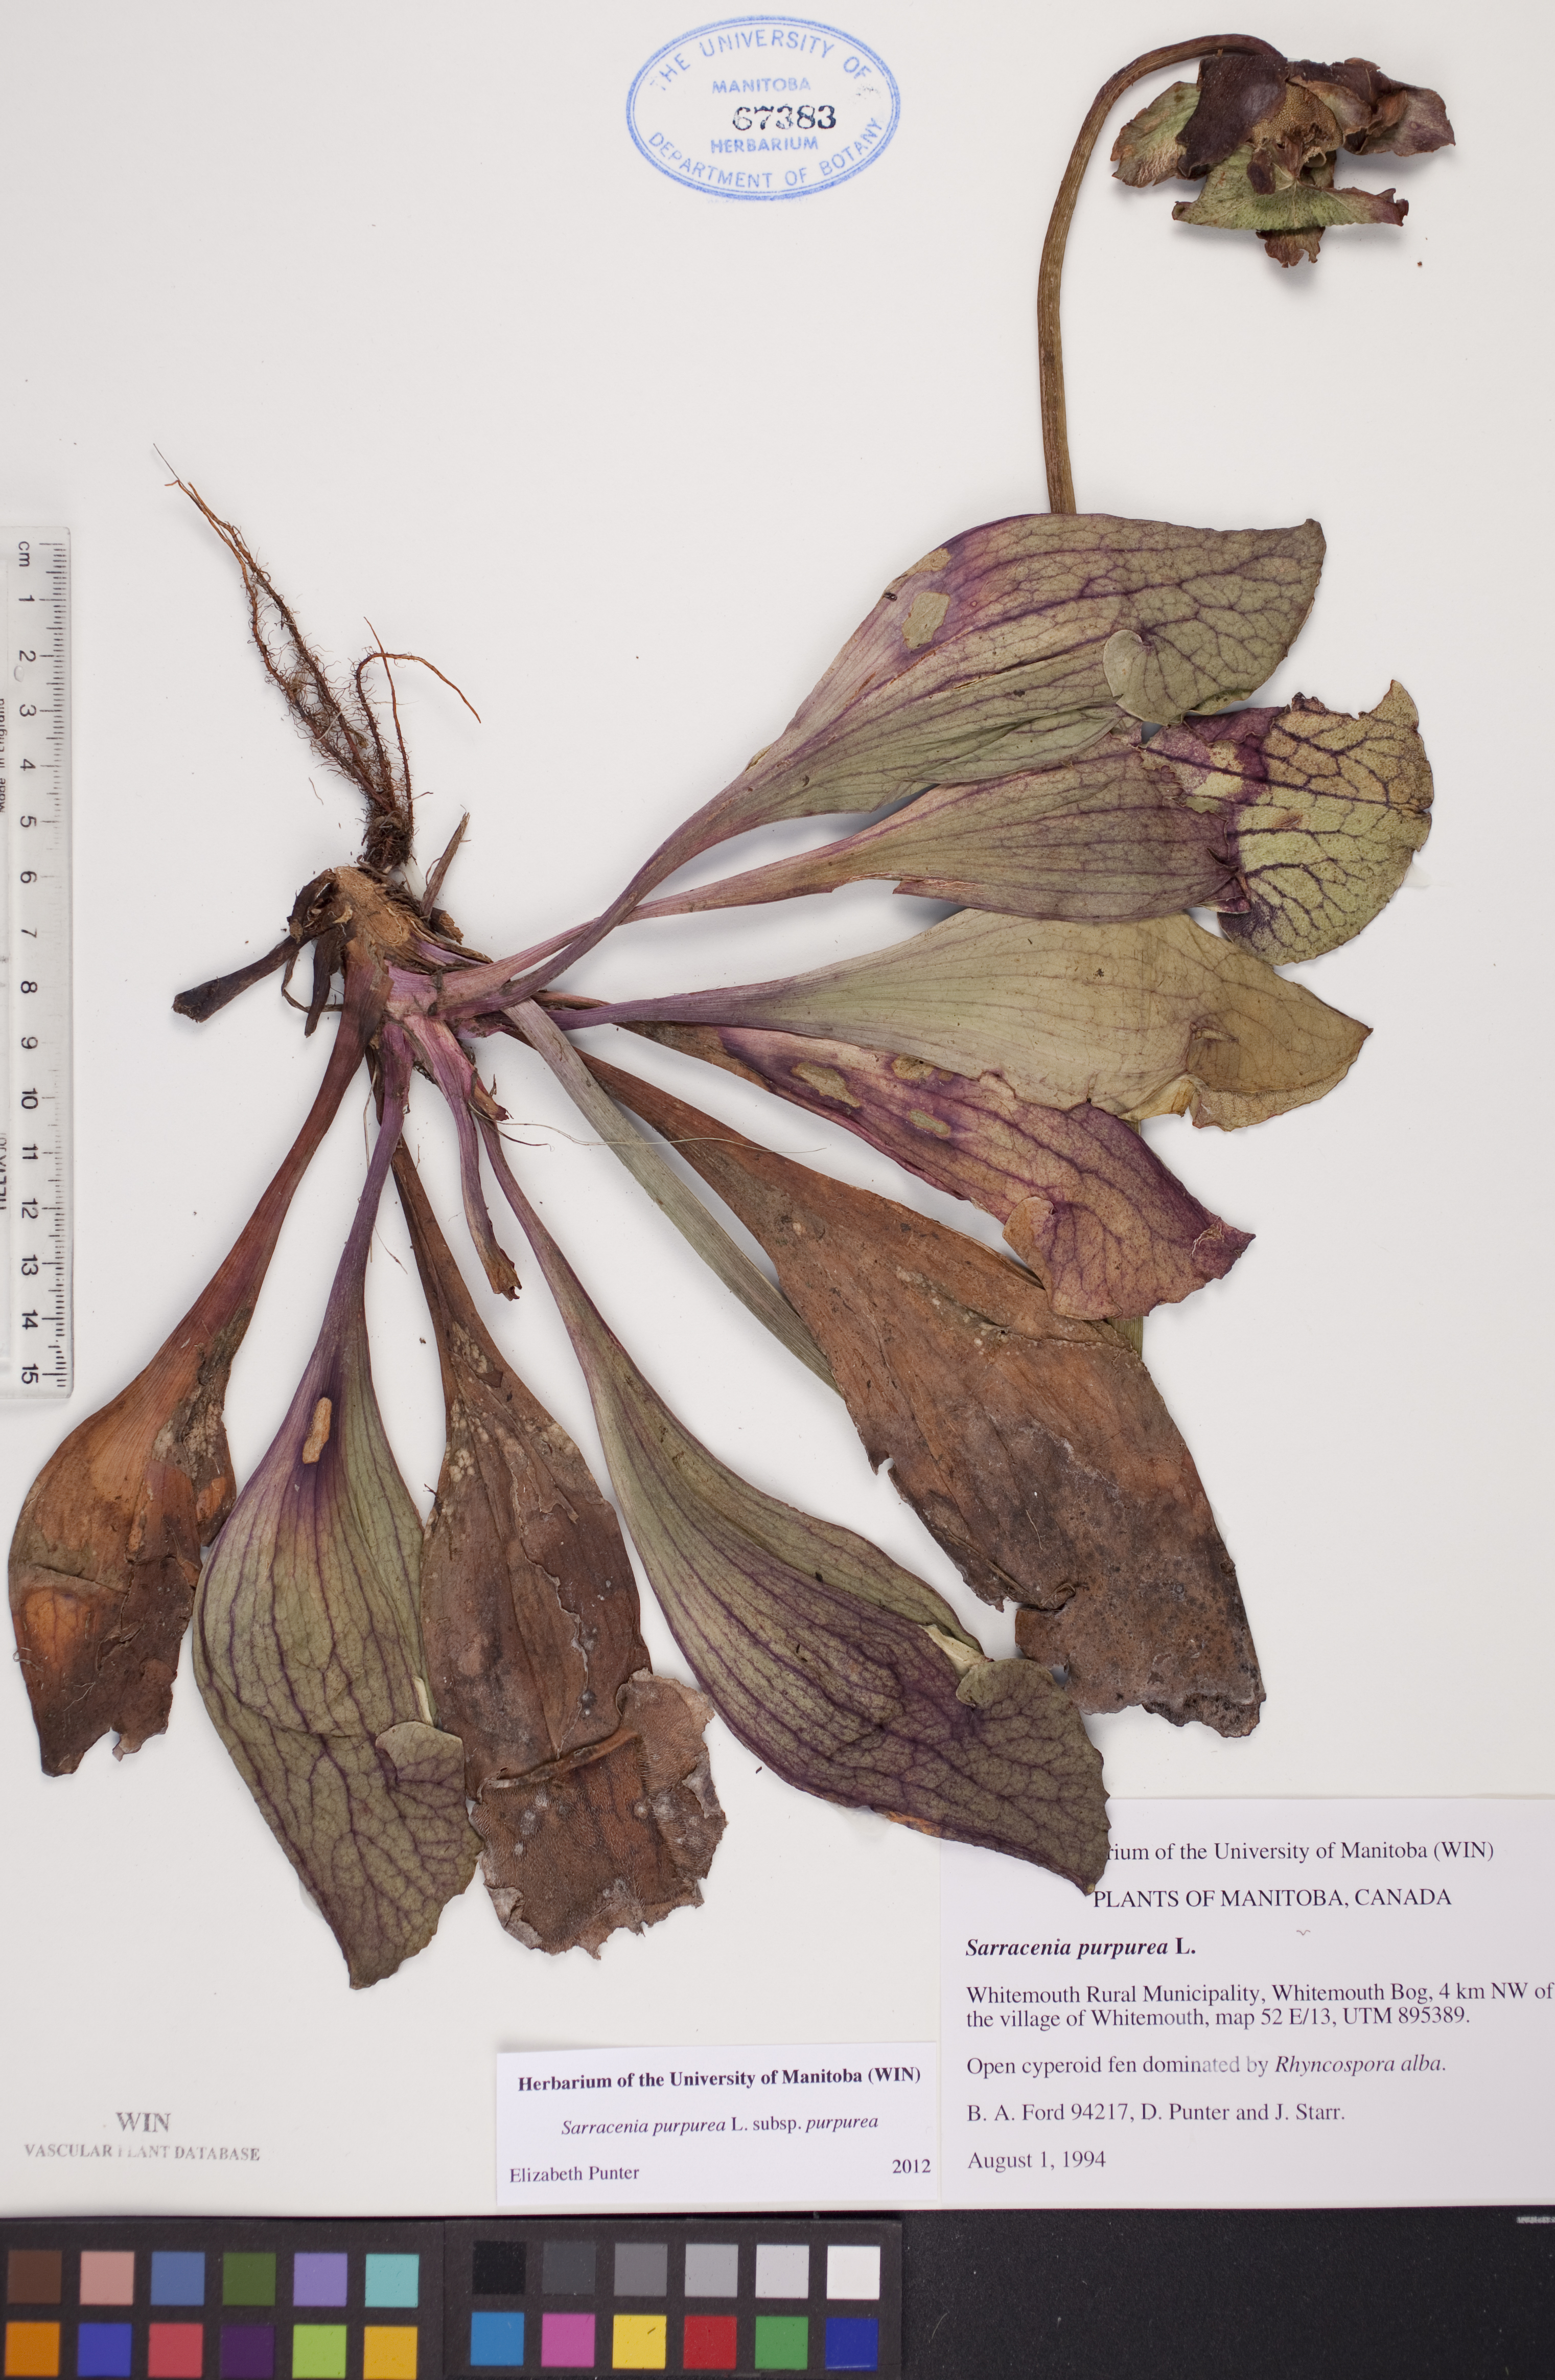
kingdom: Plantae
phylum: Tracheophyta
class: Magnoliopsida
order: Ericales
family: Sarraceniaceae
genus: Sarracenia
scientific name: Sarracenia purpurea
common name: Pitcherplant
